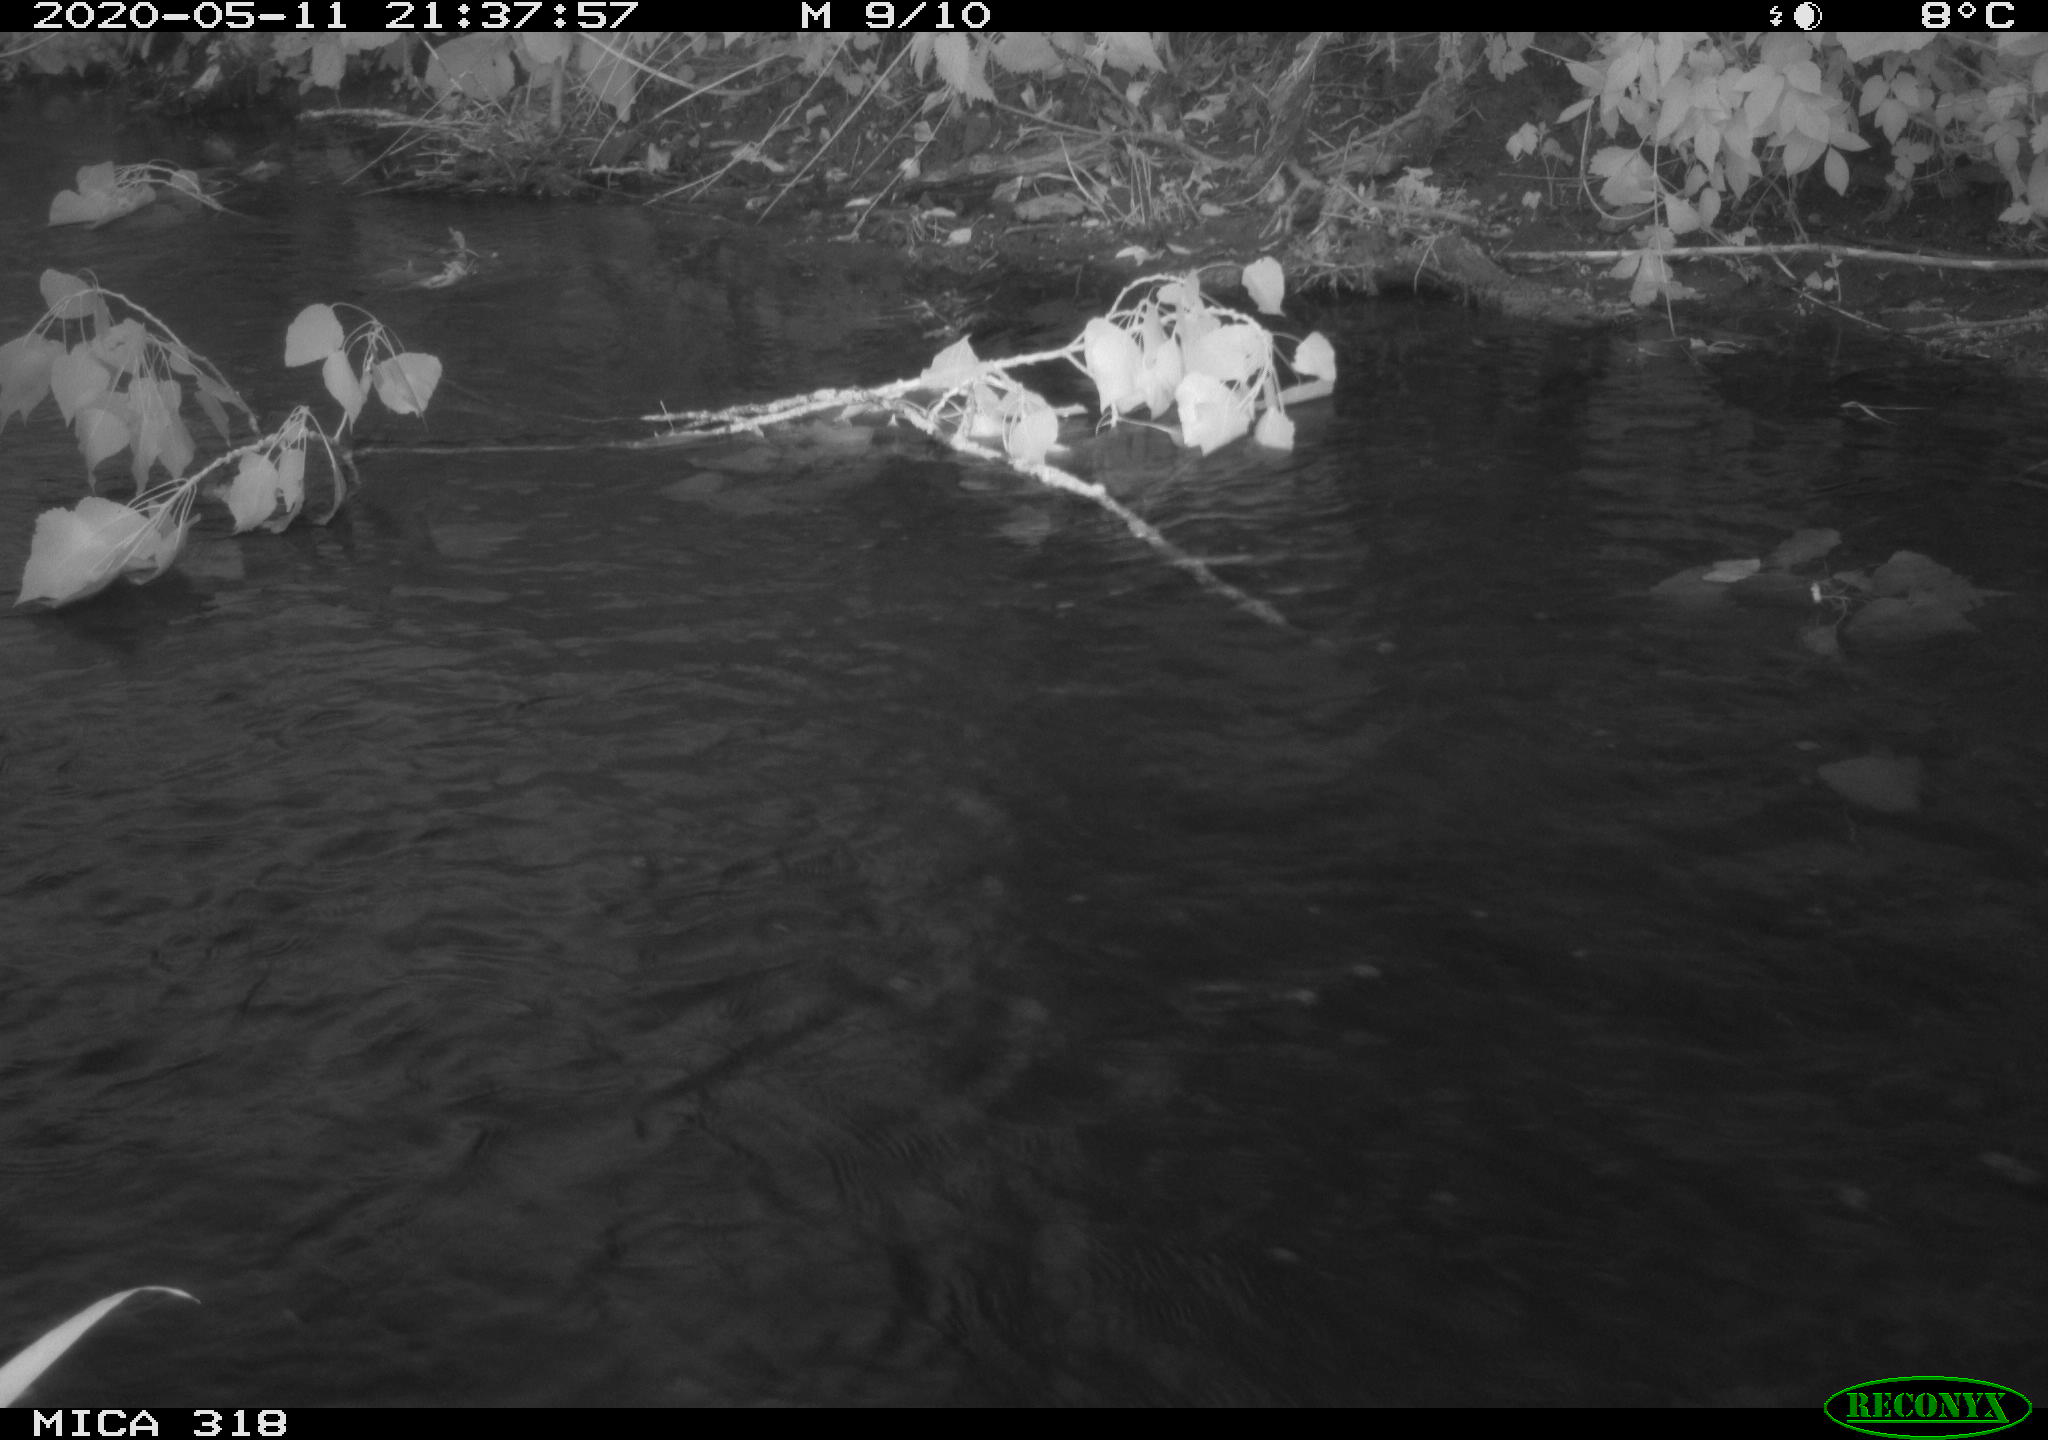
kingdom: Animalia
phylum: Chordata
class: Aves
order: Anseriformes
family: Anatidae
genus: Anas
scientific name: Anas platyrhynchos
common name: Mallard
